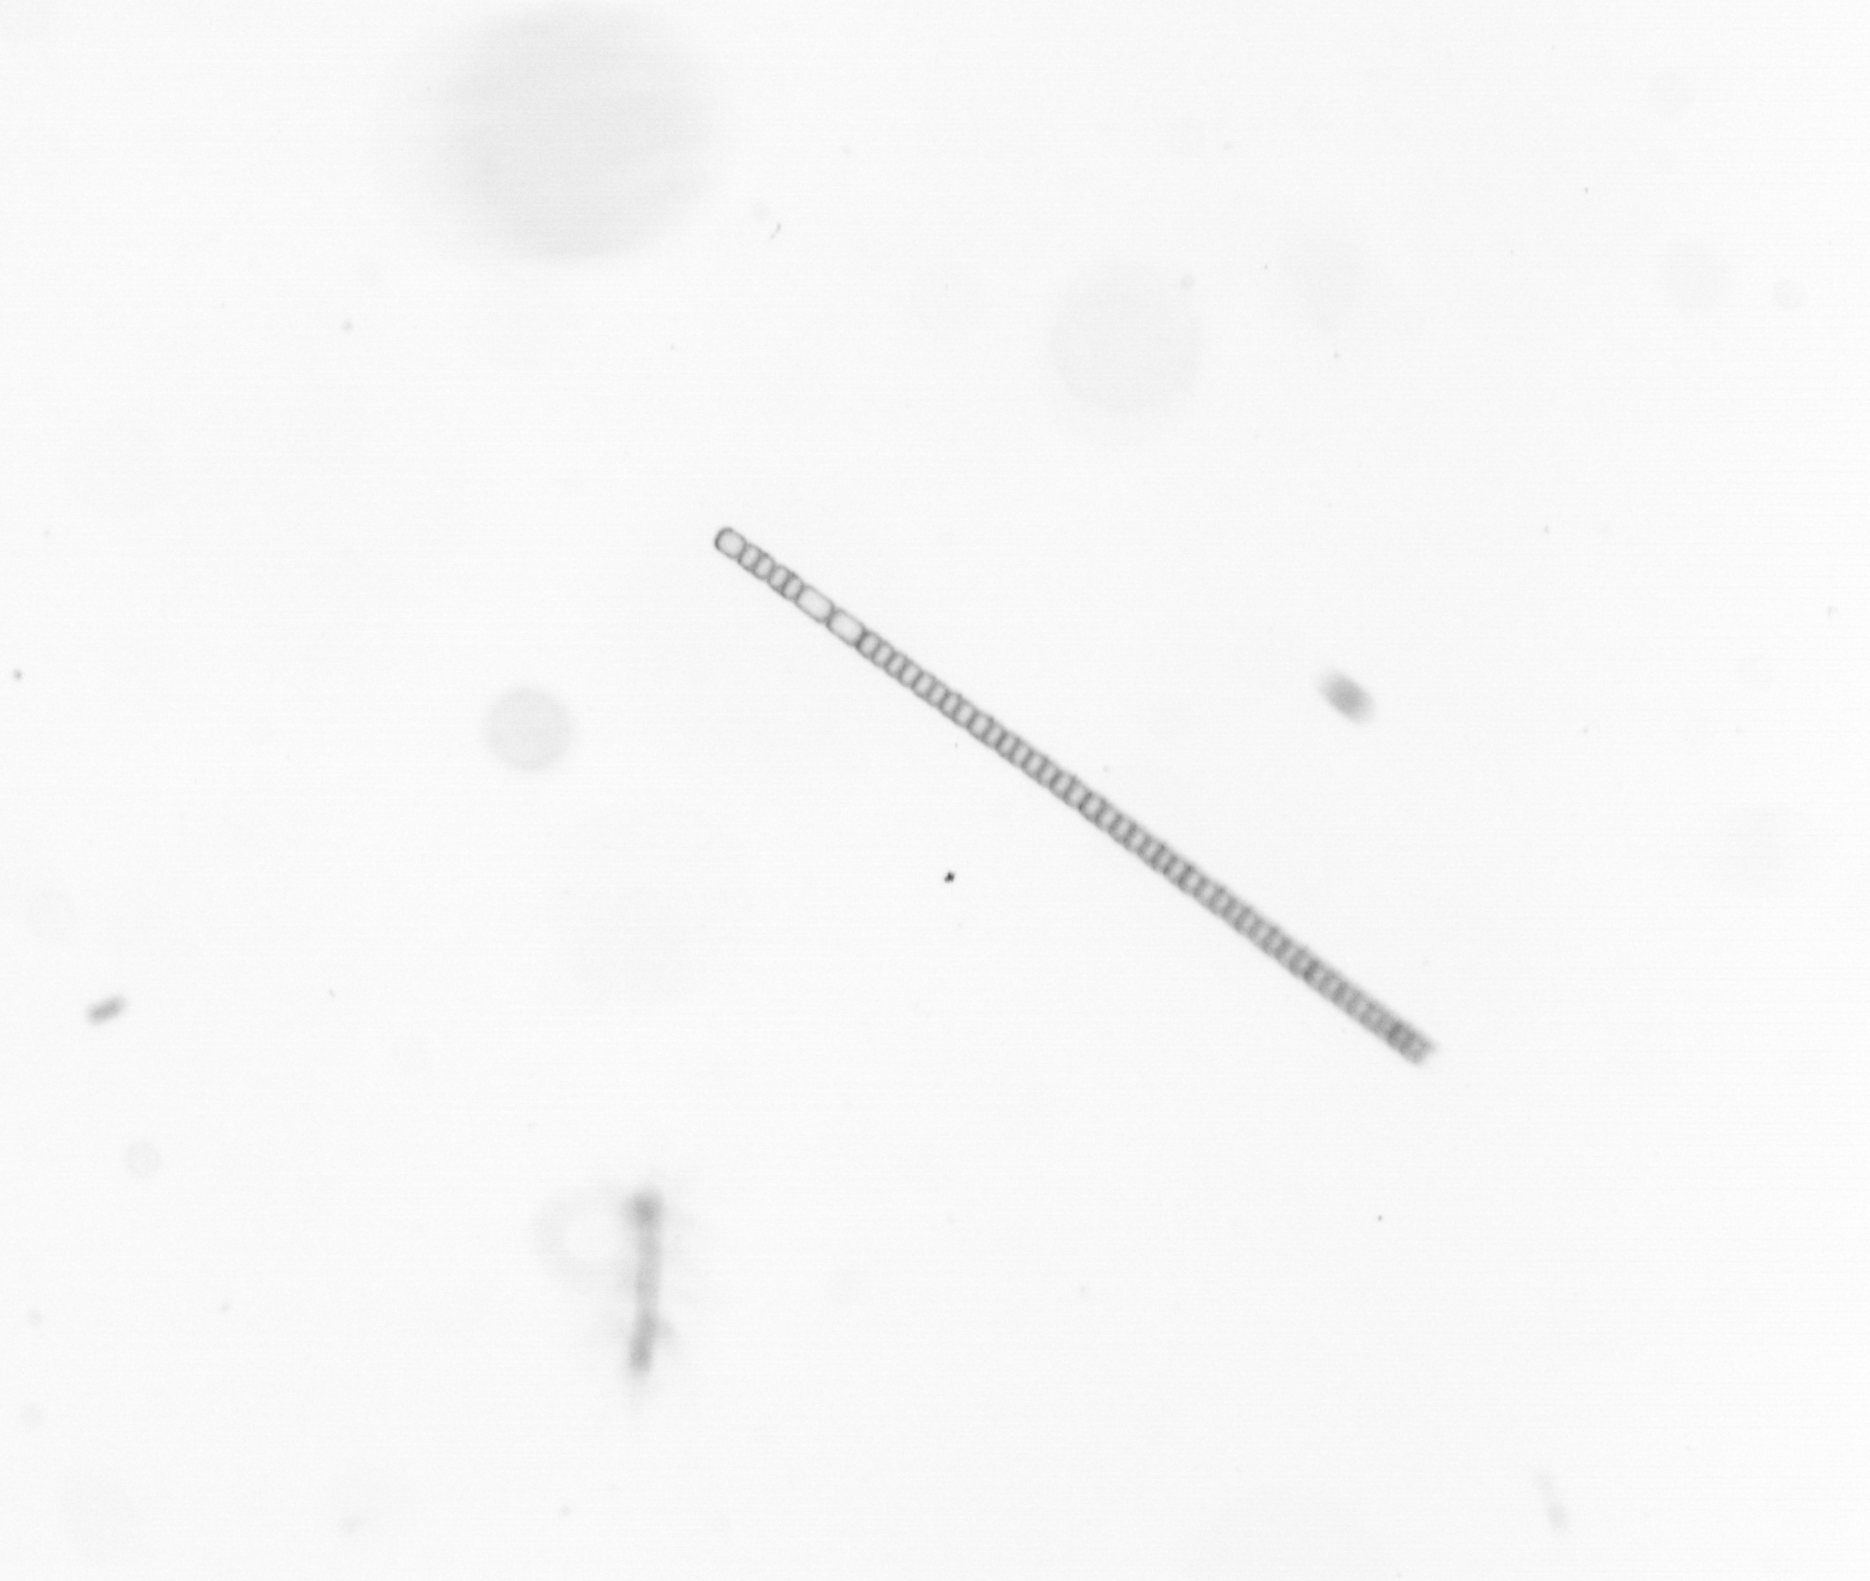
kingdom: Chromista
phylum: Ochrophyta
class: Bacillariophyceae
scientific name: Bacillariophyceae
